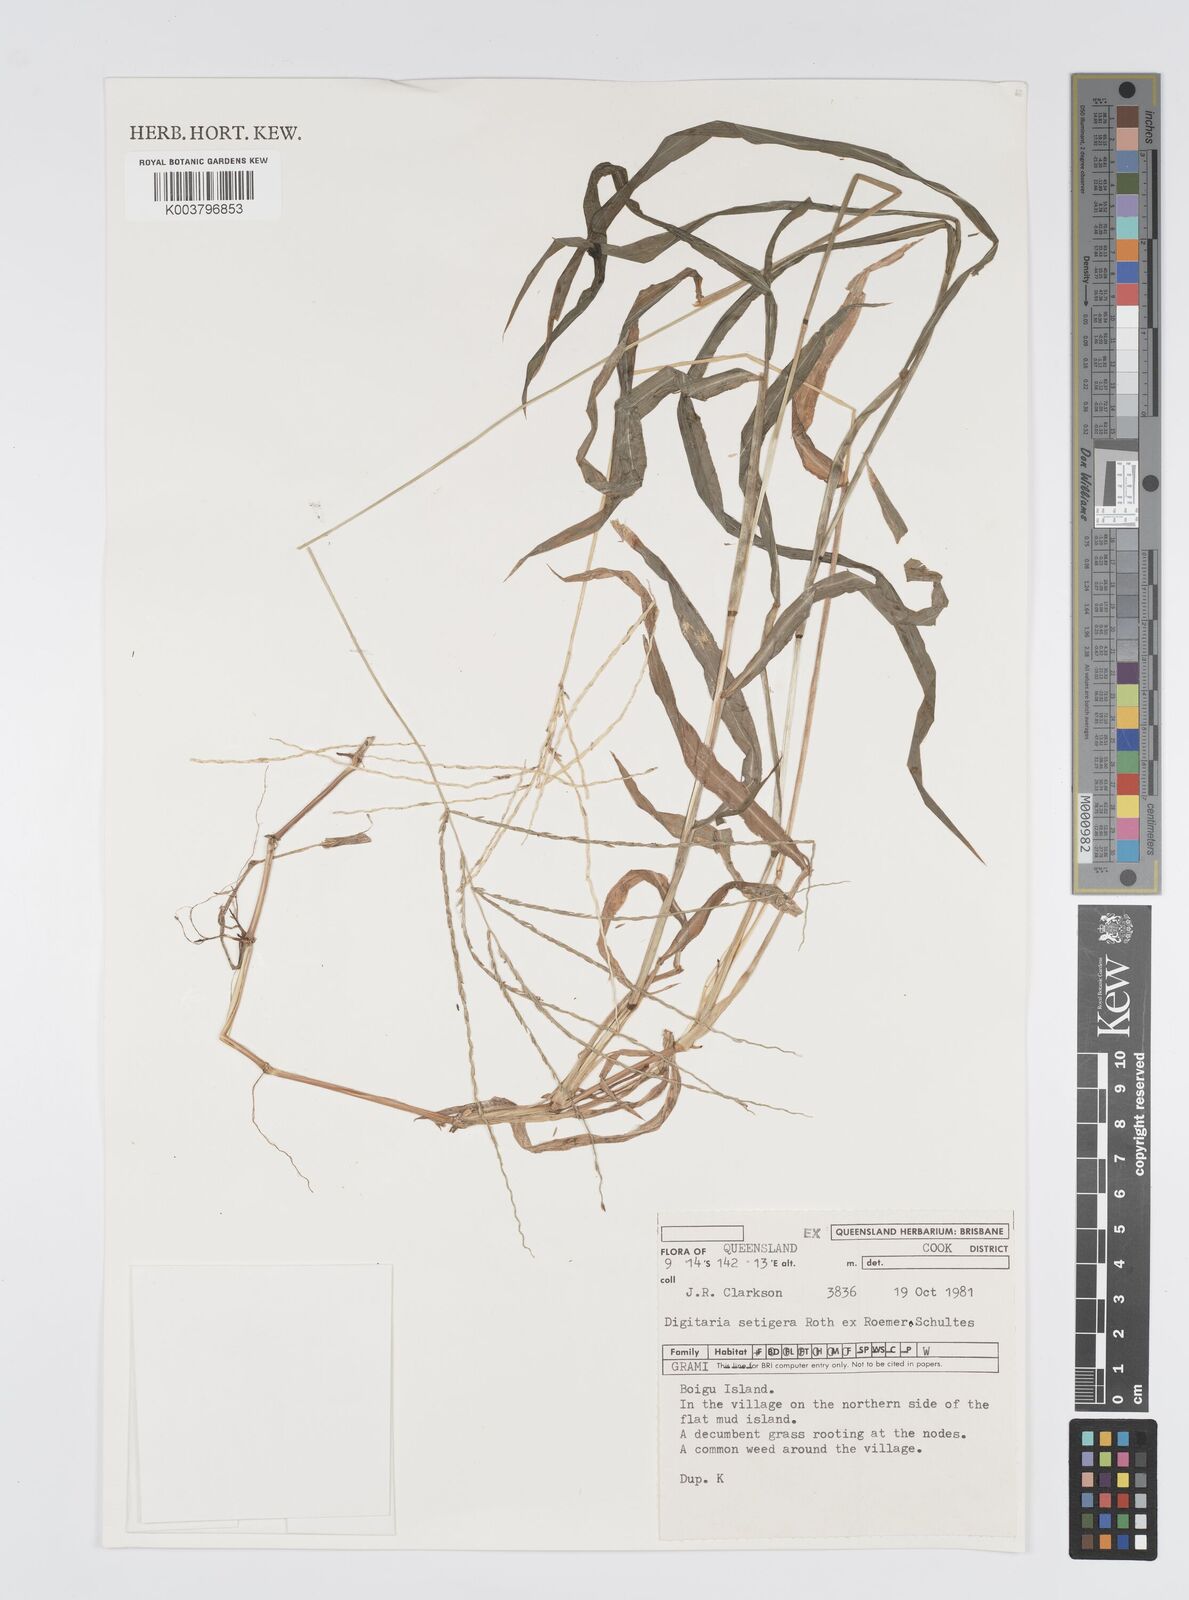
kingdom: Plantae
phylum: Tracheophyta
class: Liliopsida
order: Poales
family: Poaceae
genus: Digitaria
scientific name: Digitaria setigera
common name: East indian crabgrass
